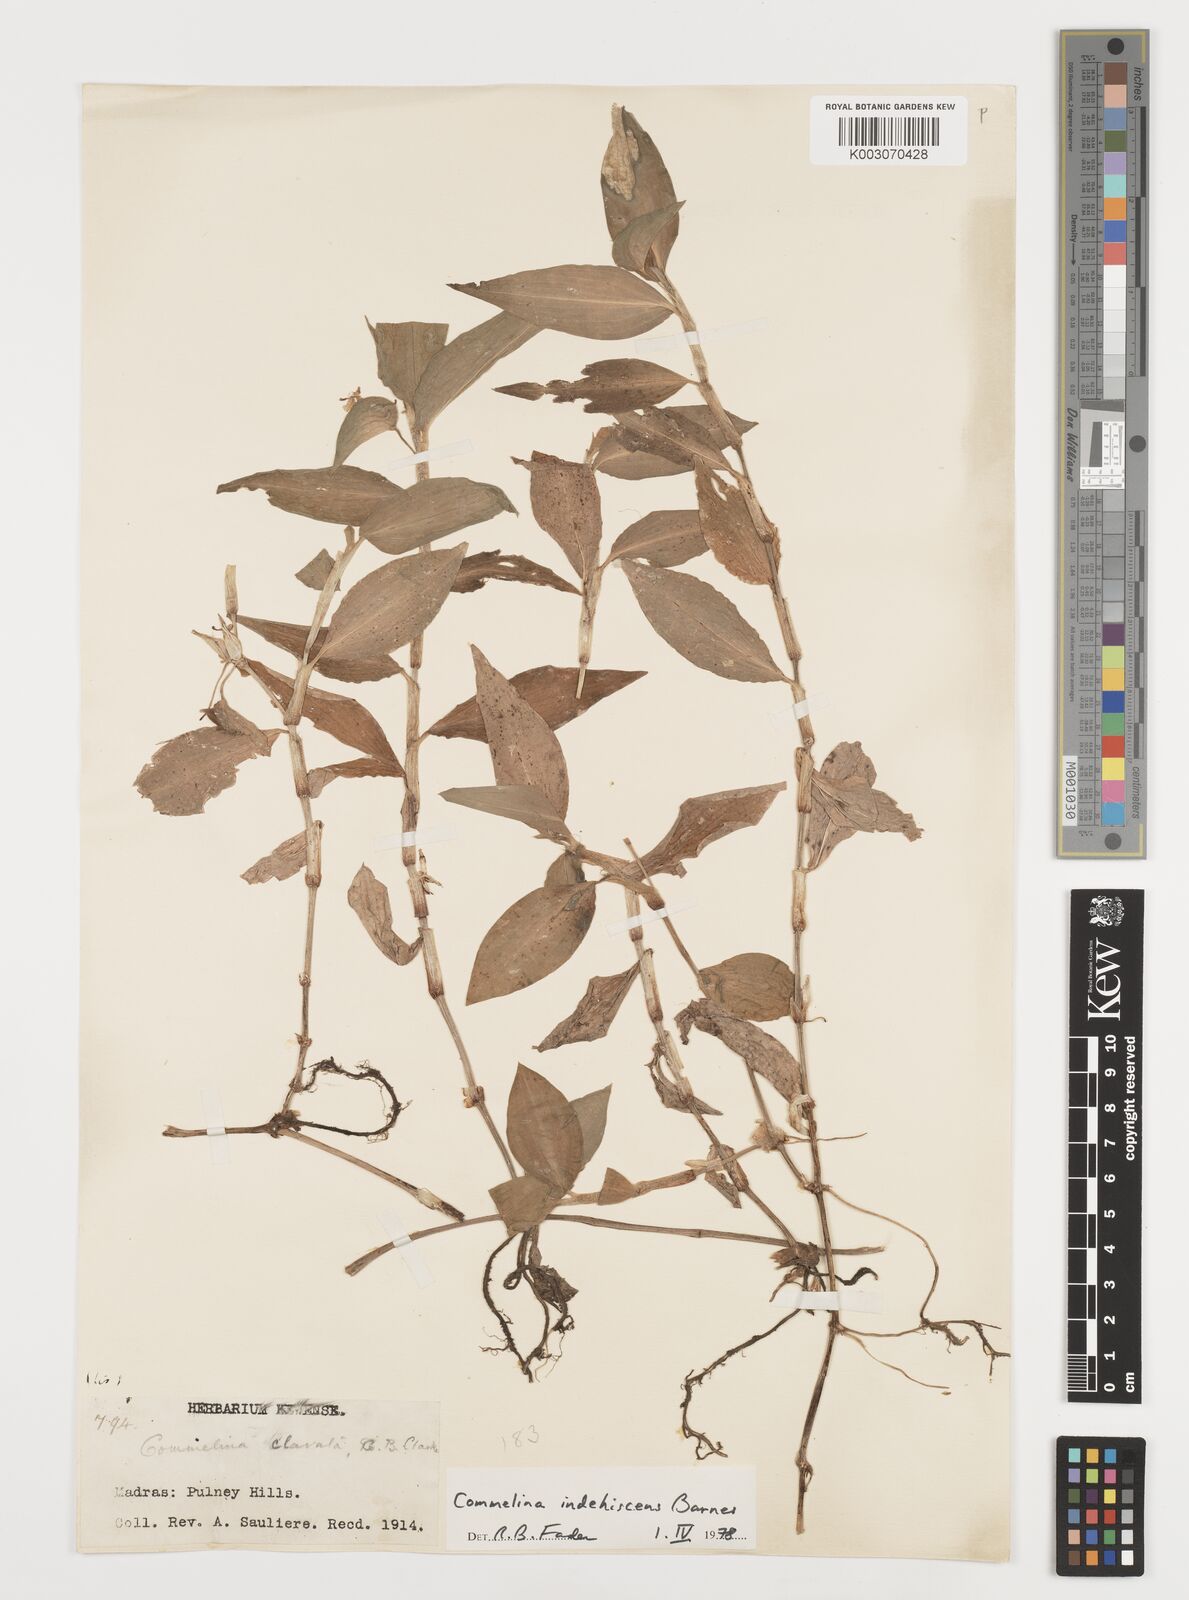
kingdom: Plantae
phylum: Tracheophyta
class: Liliopsida
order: Commelinales
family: Commelinaceae
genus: Commelina
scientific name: Commelina indehiscens
